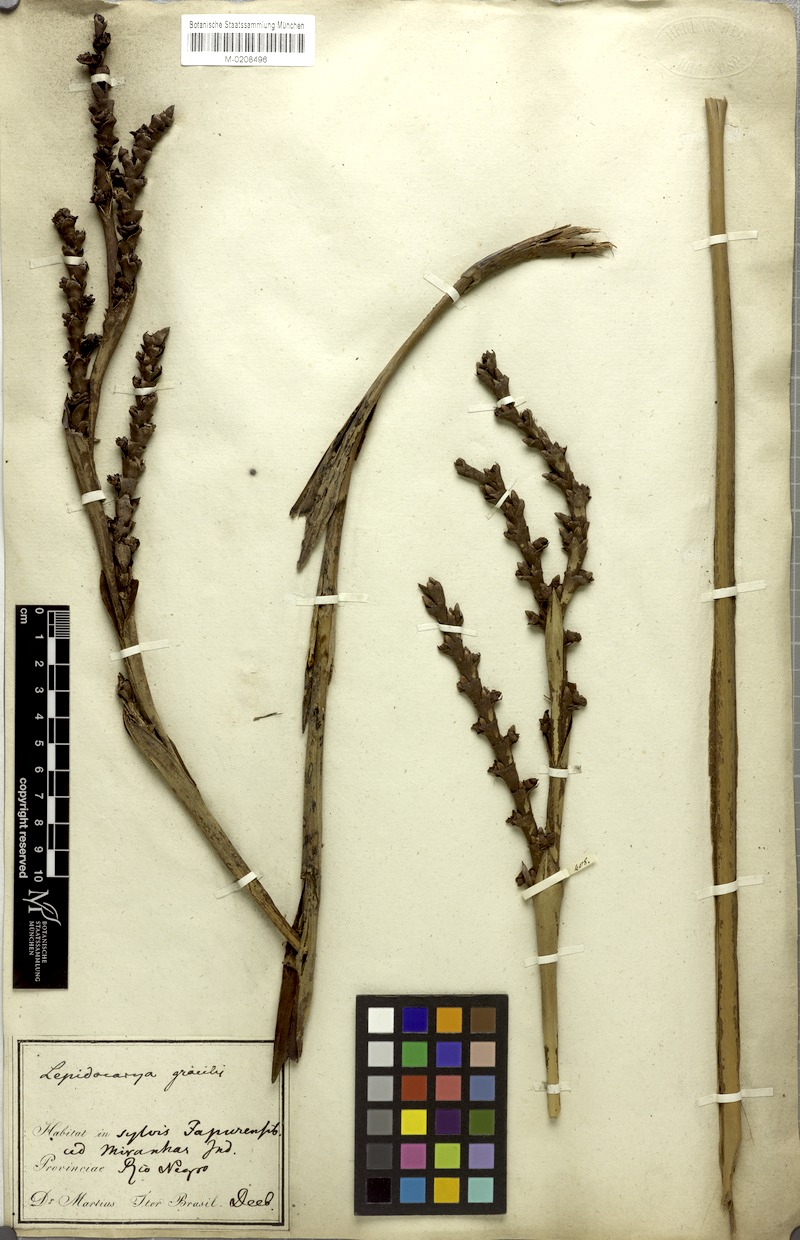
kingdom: Plantae
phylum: Tracheophyta
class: Liliopsida
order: Arecales
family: Arecaceae
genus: Lepidocaryum
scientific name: Lepidocaryum tenue
